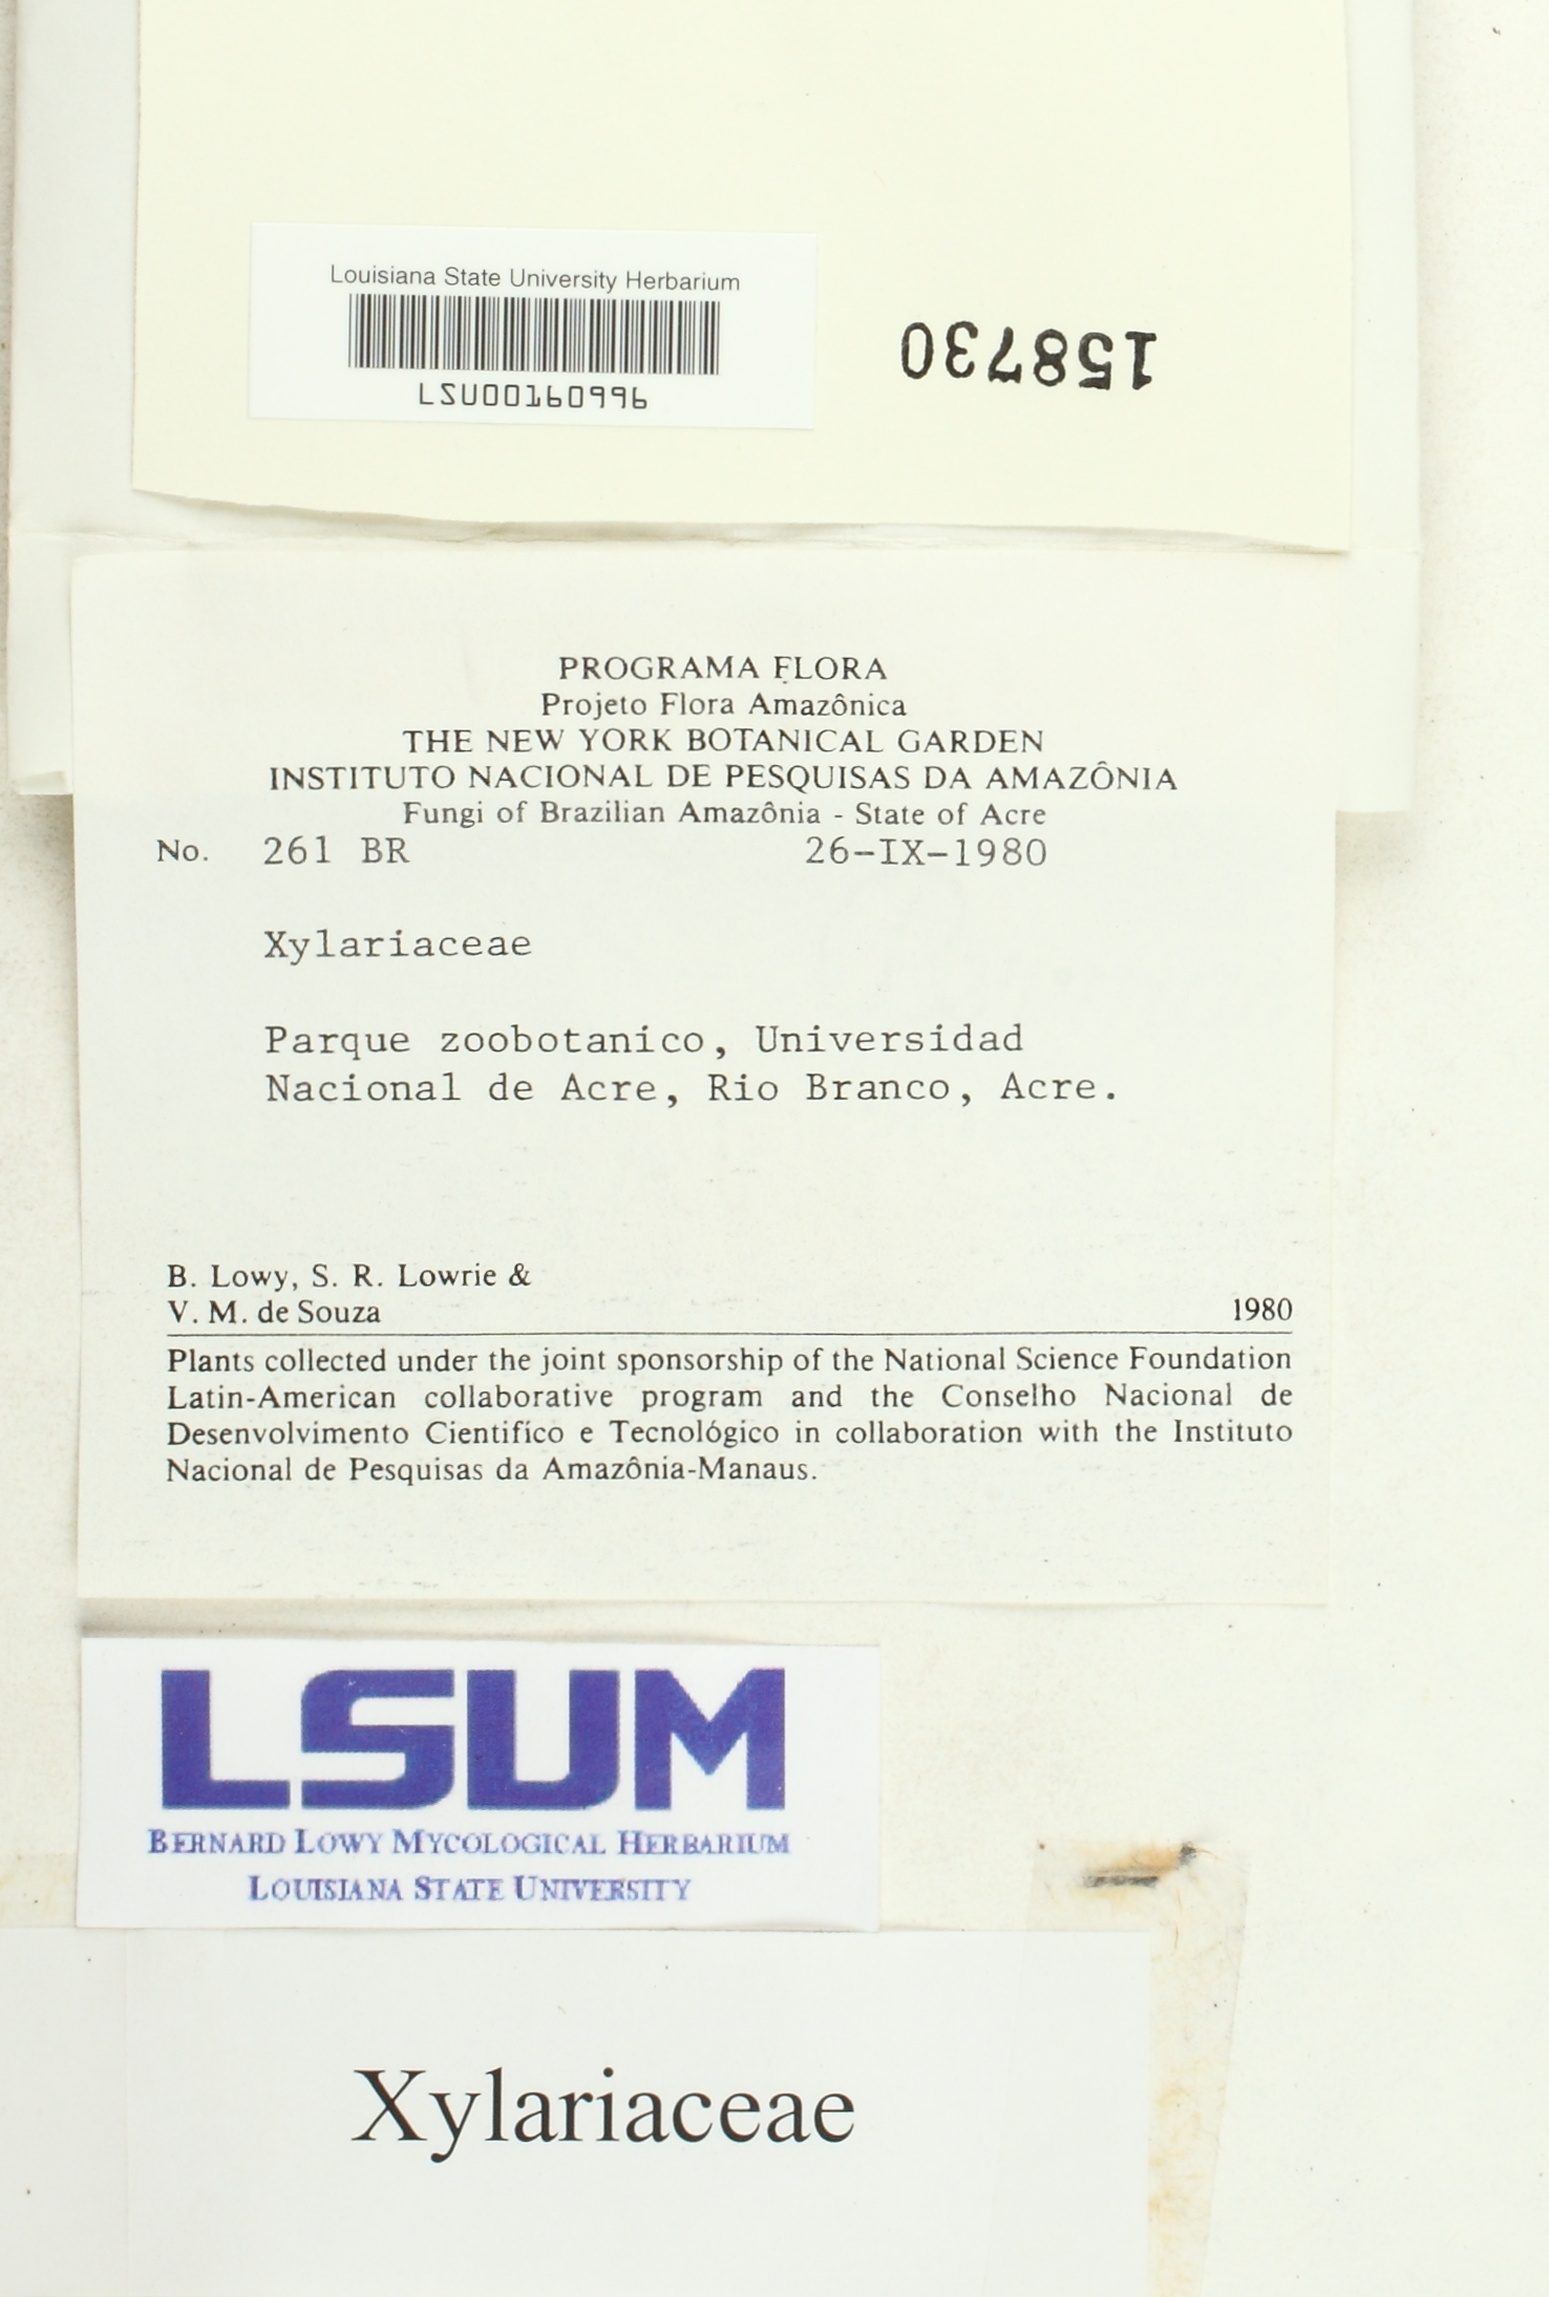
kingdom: Fungi
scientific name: Fungi
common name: Fungi
